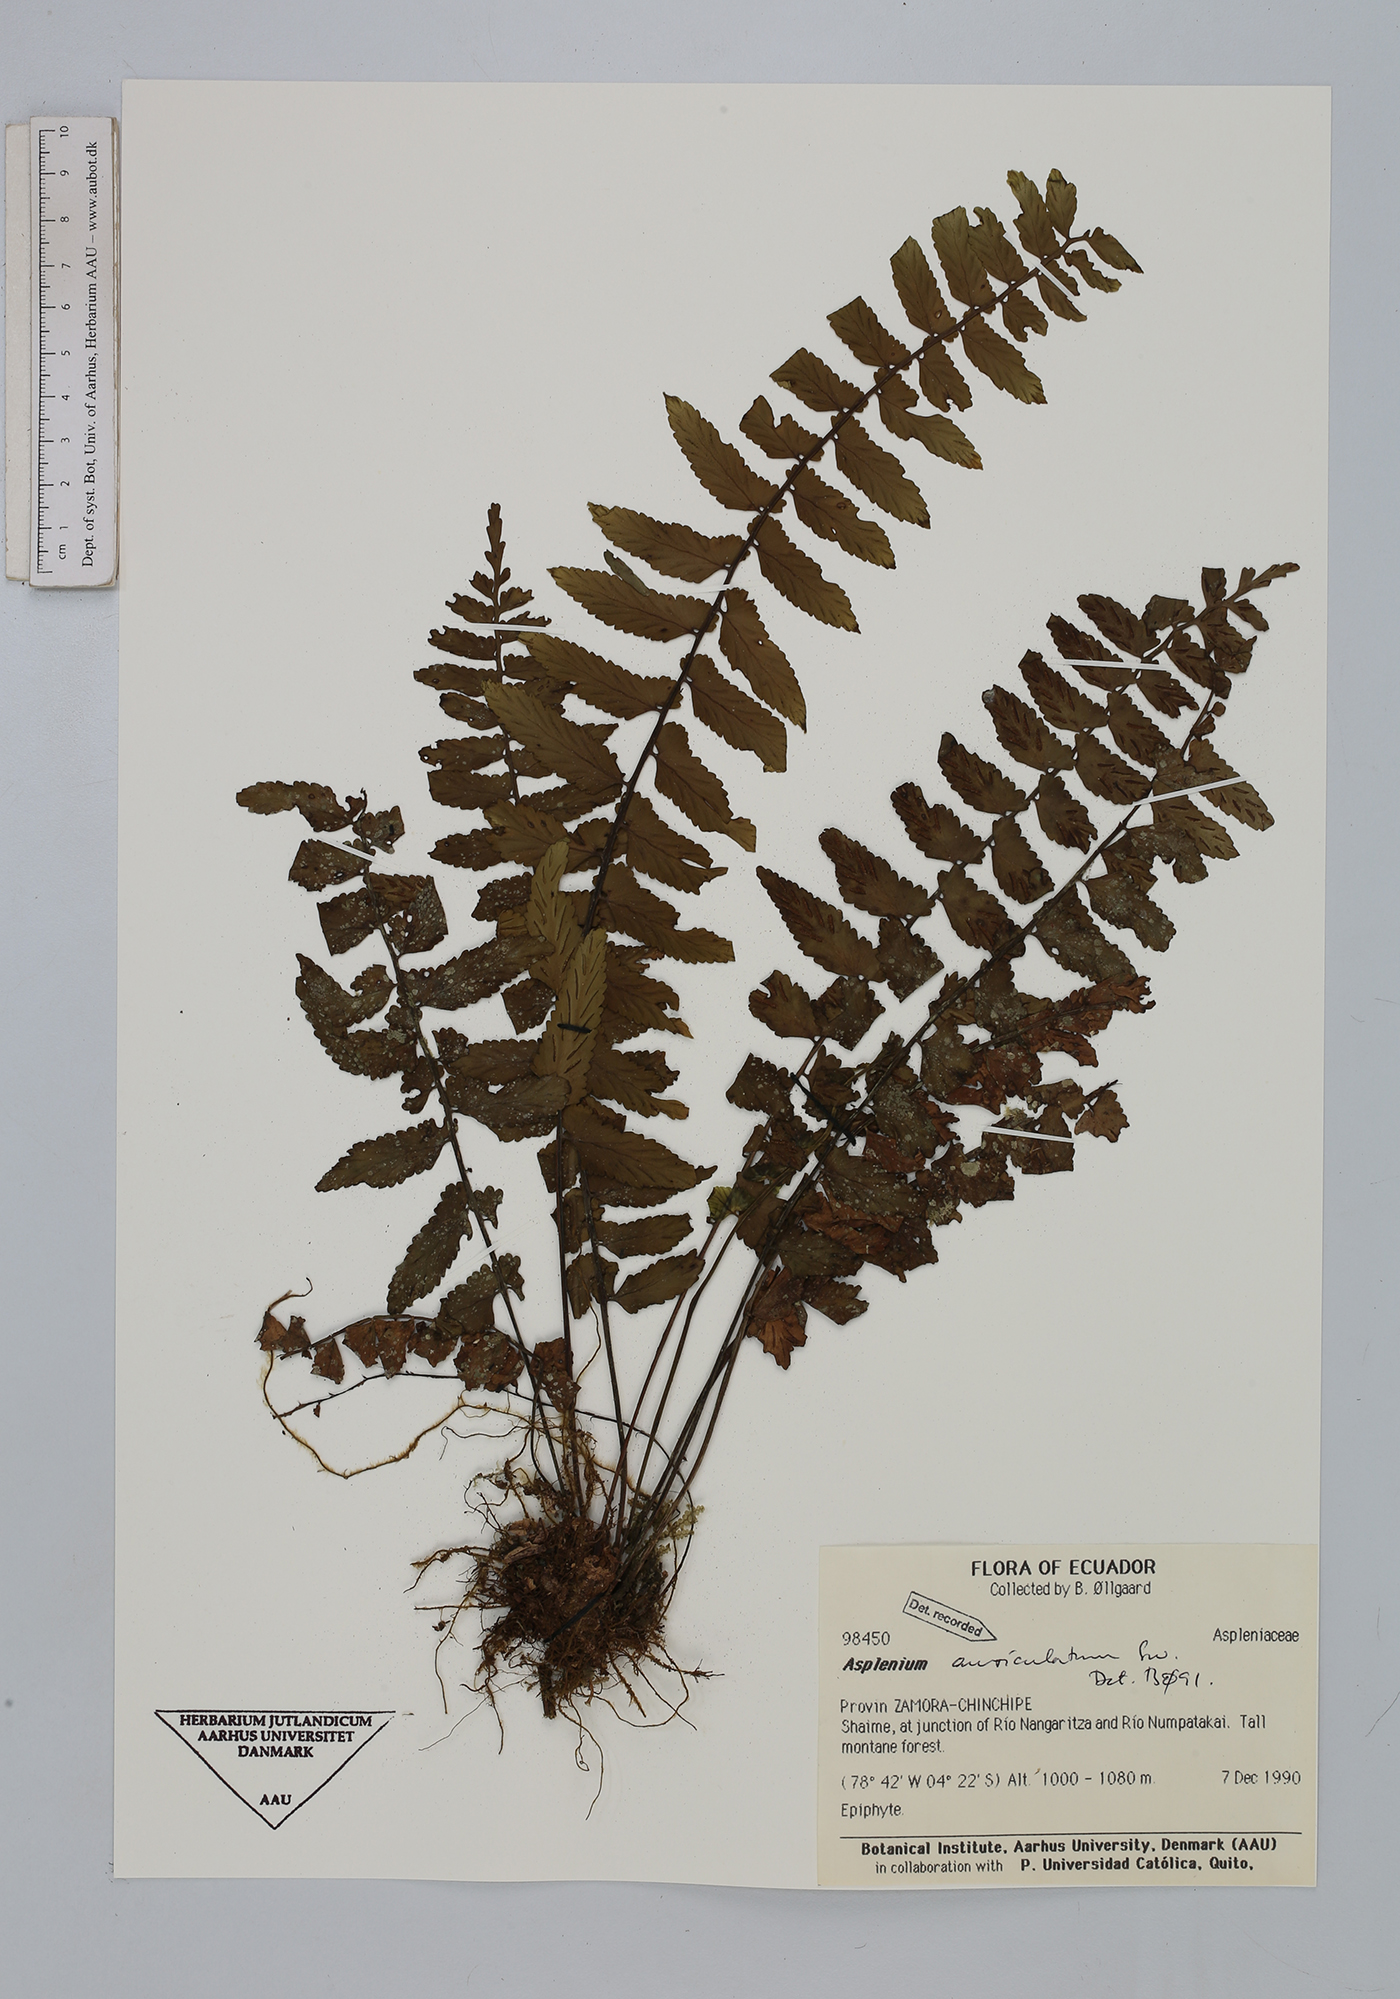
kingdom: Plantae
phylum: Tracheophyta
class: Polypodiopsida
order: Polypodiales
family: Aspleniaceae
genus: Asplenium
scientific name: Asplenium auriculatum
